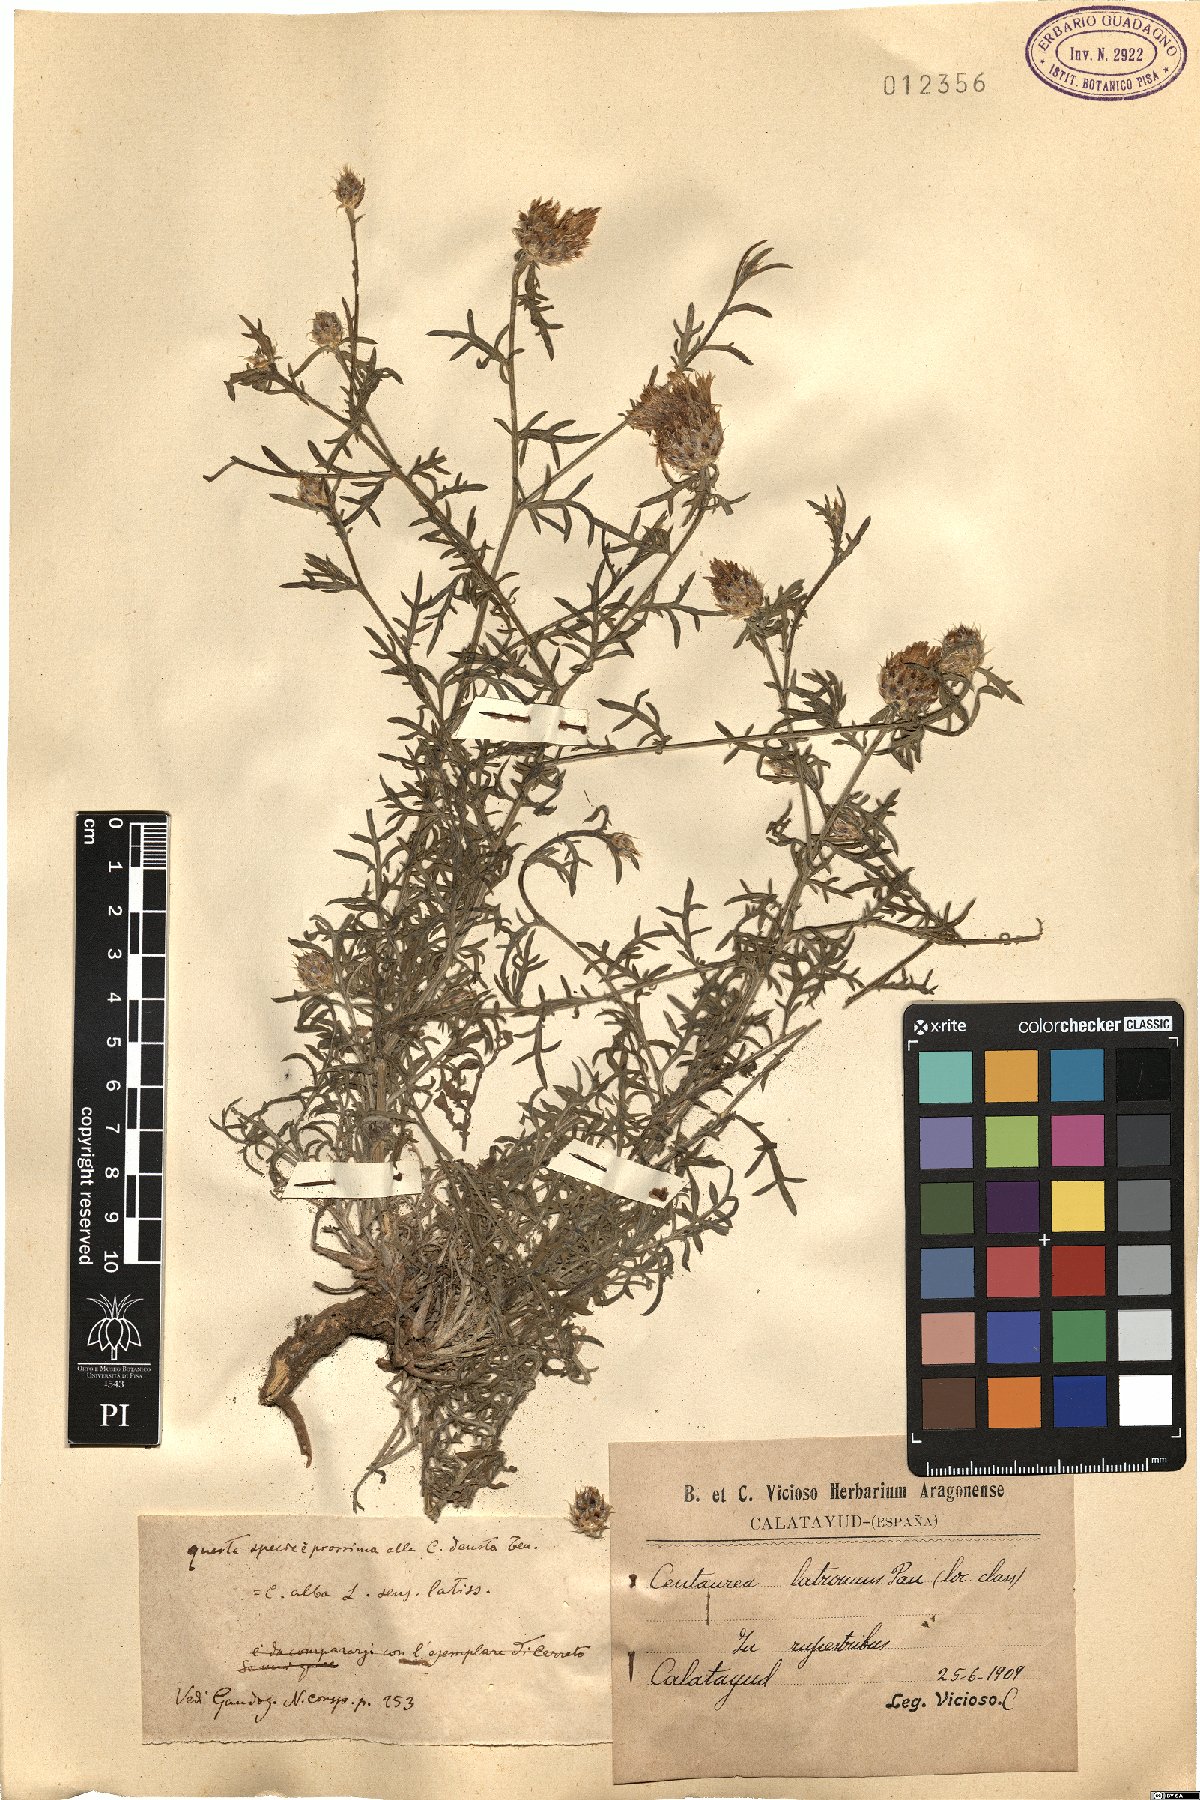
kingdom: Plantae
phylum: Tracheophyta
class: Magnoliopsida
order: Asterales
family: Asteraceae
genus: Centaurea
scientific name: Centaurea alba
